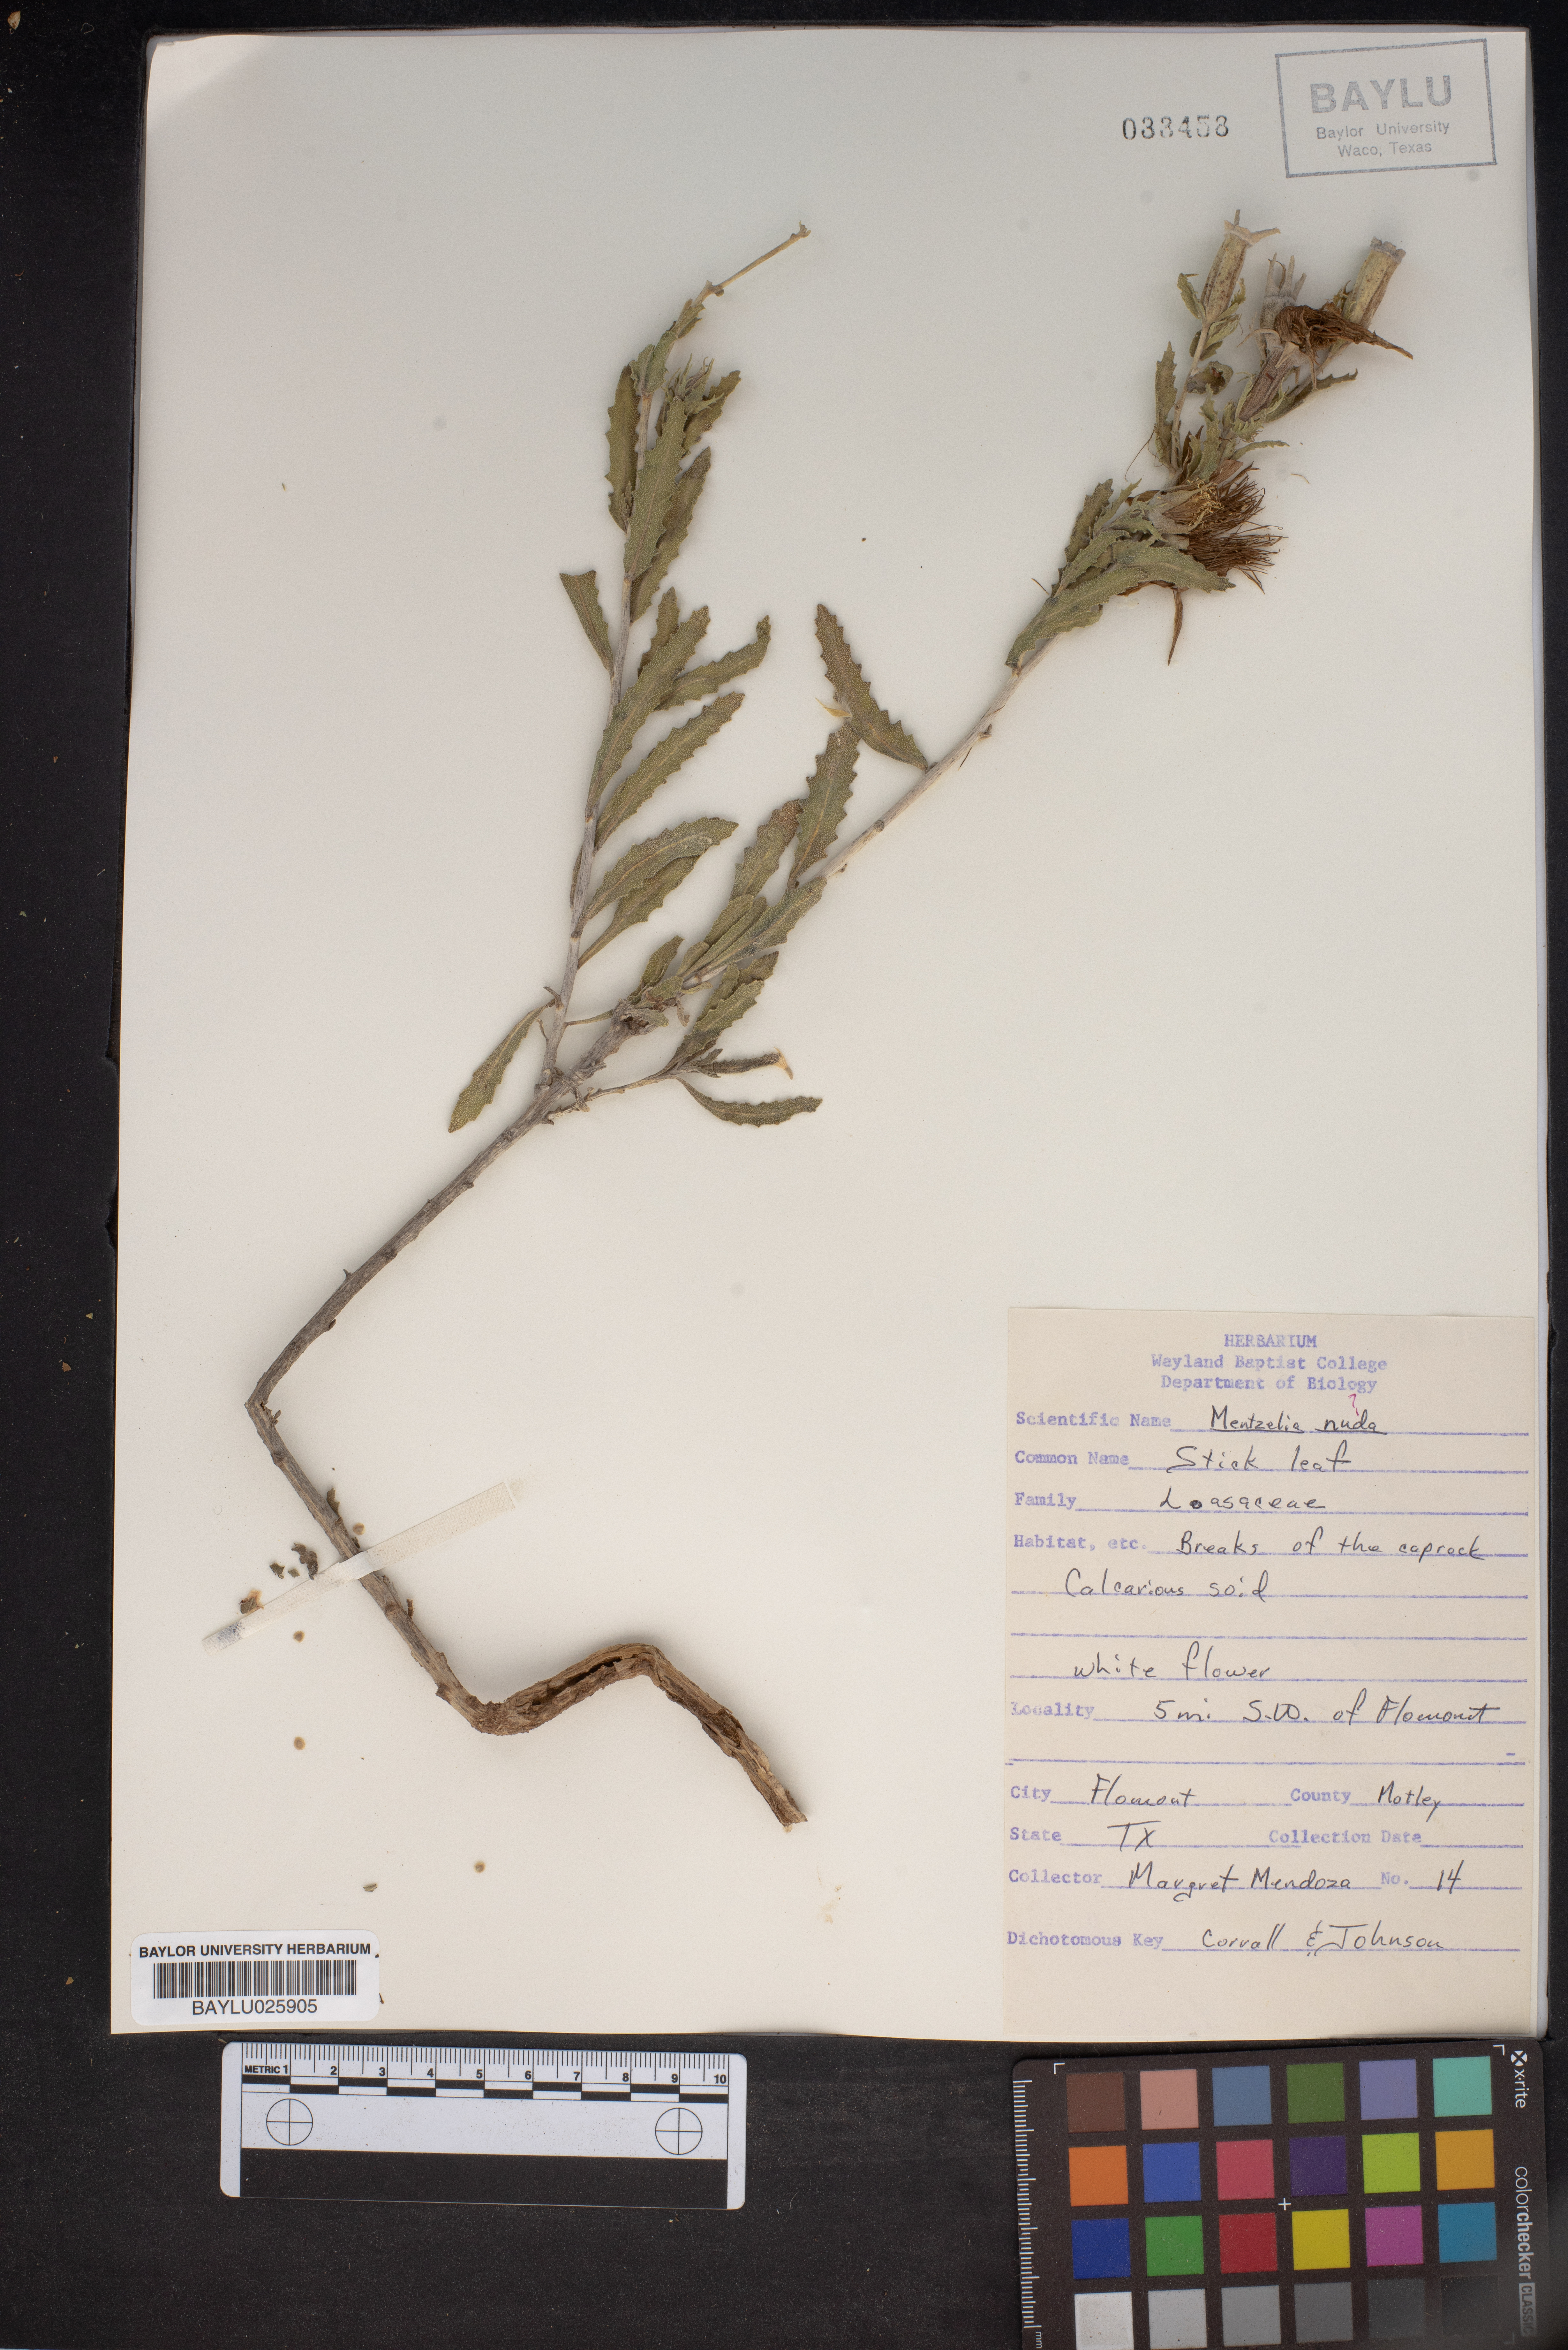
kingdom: Plantae
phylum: Tracheophyta
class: Magnoliopsida
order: Cornales
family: Loasaceae
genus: Mentzelia
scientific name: Mentzelia nuda
